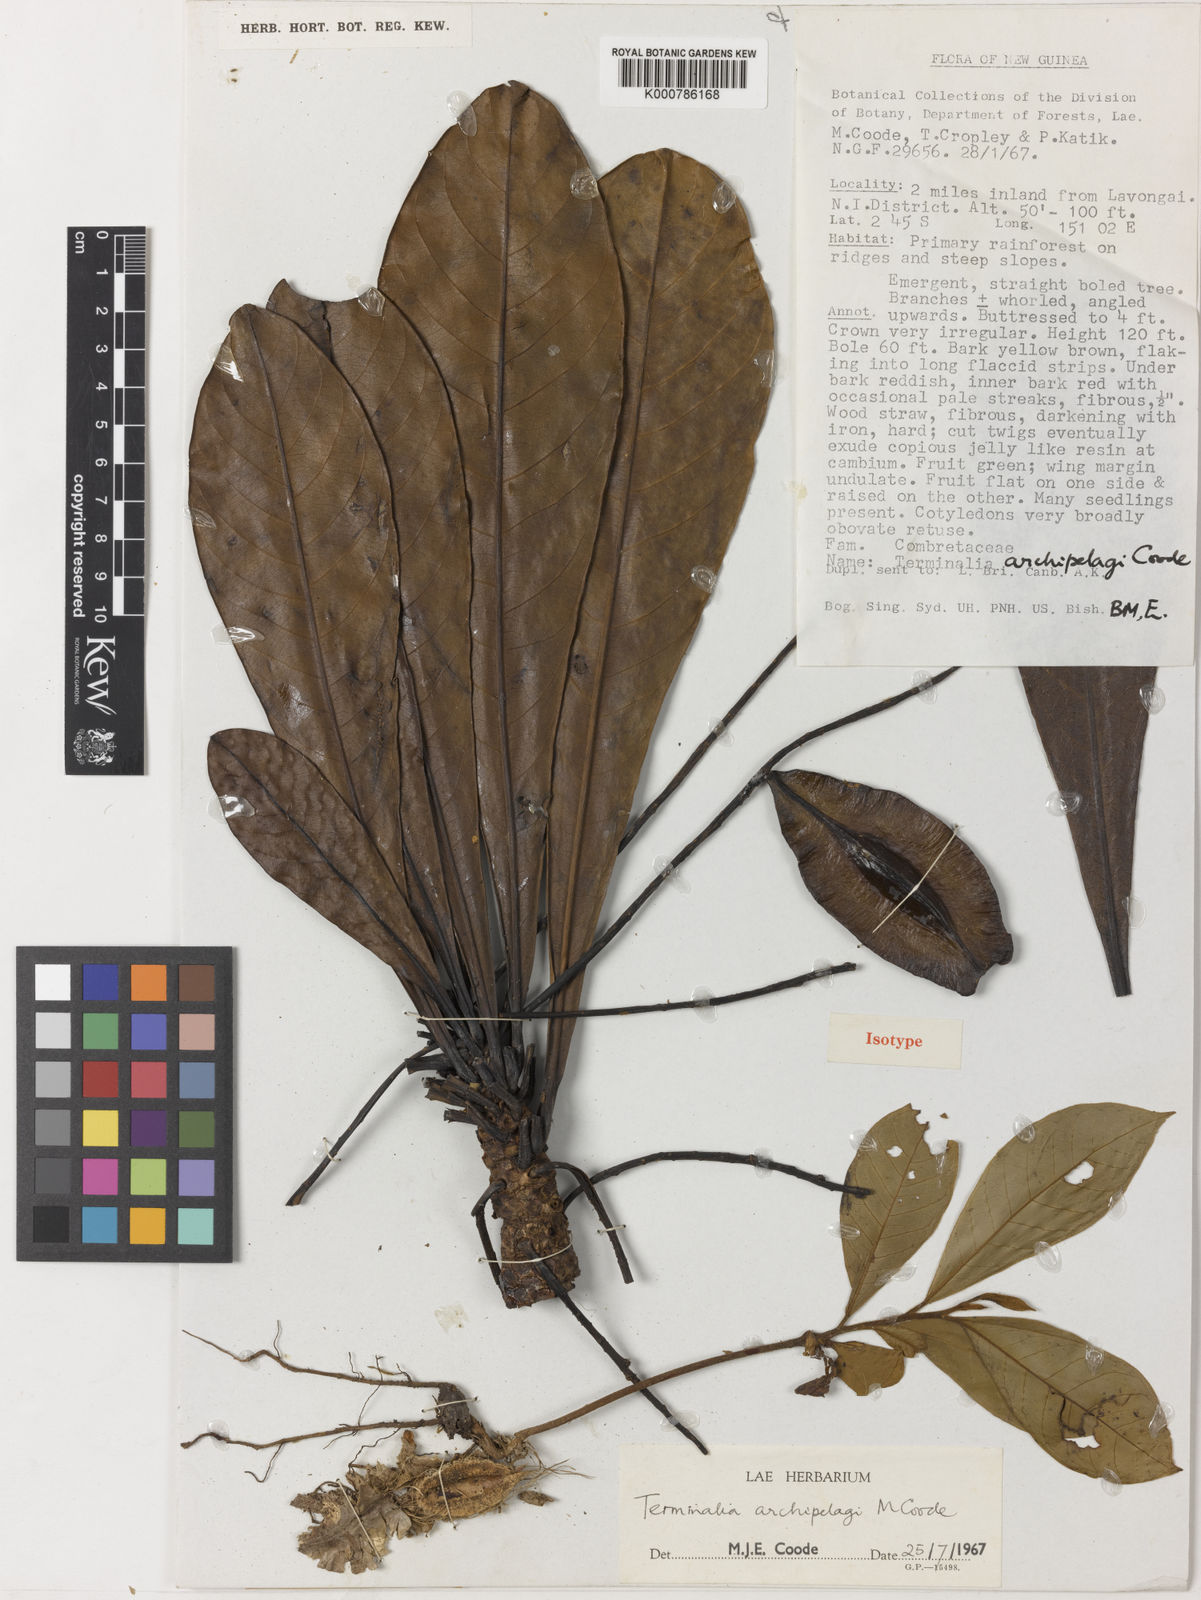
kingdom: Plantae
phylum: Tracheophyta
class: Magnoliopsida
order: Myrtales
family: Combretaceae
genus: Terminalia
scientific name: Terminalia archipelagi
